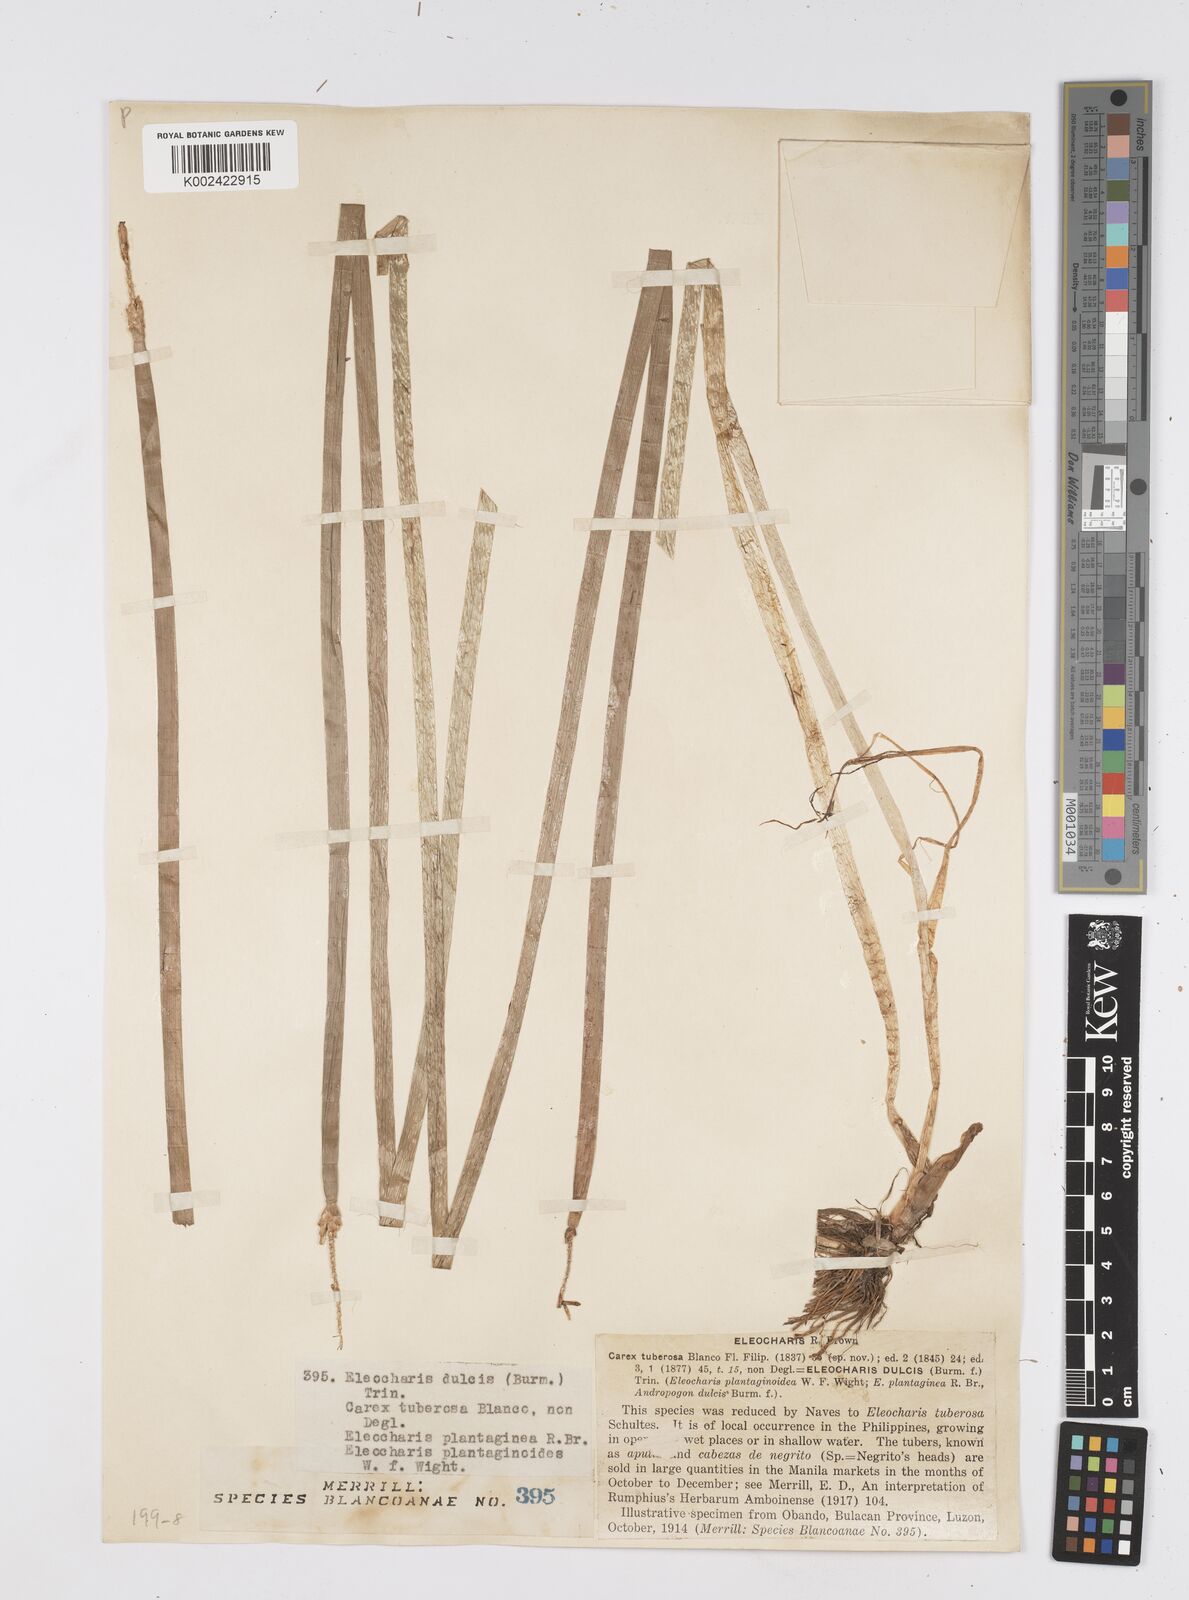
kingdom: Plantae
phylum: Tracheophyta
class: Liliopsida
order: Poales
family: Cyperaceae
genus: Eleocharis
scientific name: Eleocharis dulcis
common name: Chinese water chestnut
